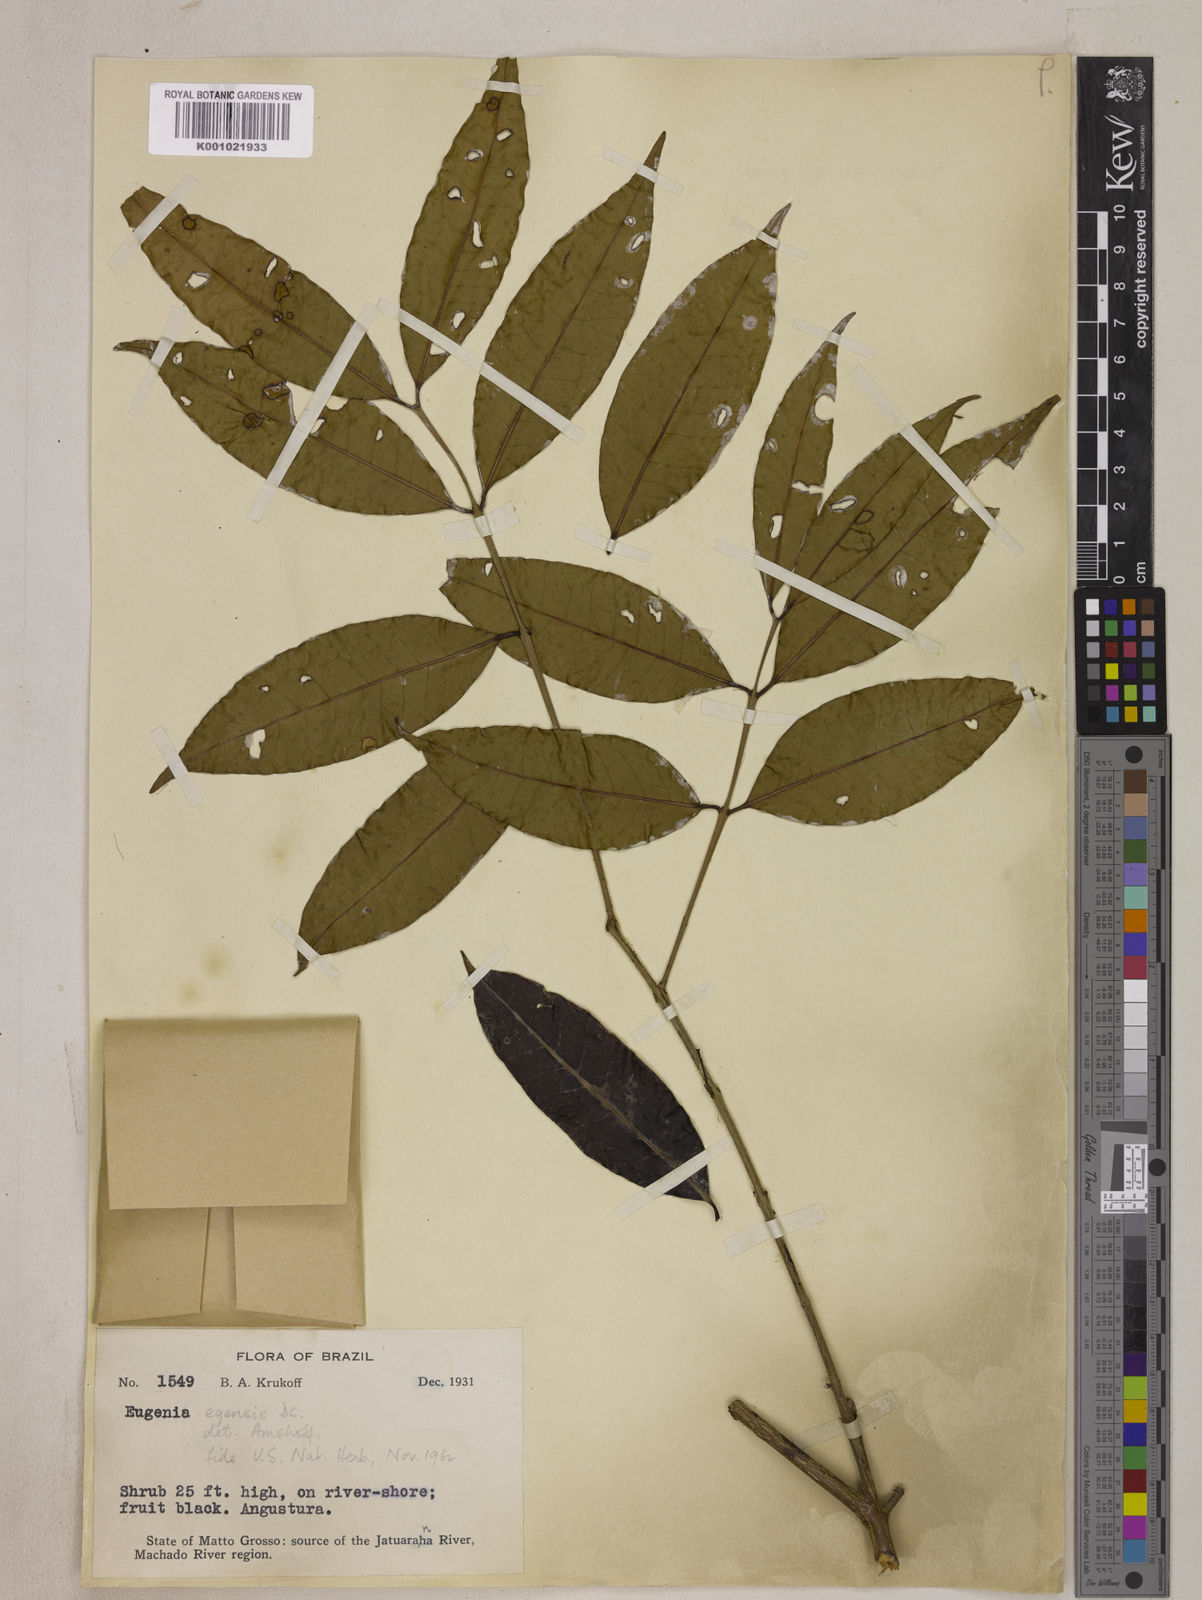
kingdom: Plantae
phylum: Tracheophyta
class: Magnoliopsida
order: Myrtales
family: Myrtaceae
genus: Eugenia
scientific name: Eugenia egensis
